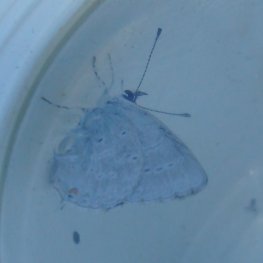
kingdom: Animalia
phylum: Arthropoda
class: Insecta
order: Lepidoptera
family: Lycaenidae
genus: Elkalyce
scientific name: Elkalyce amyntula
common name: Western Tailed-Blue
